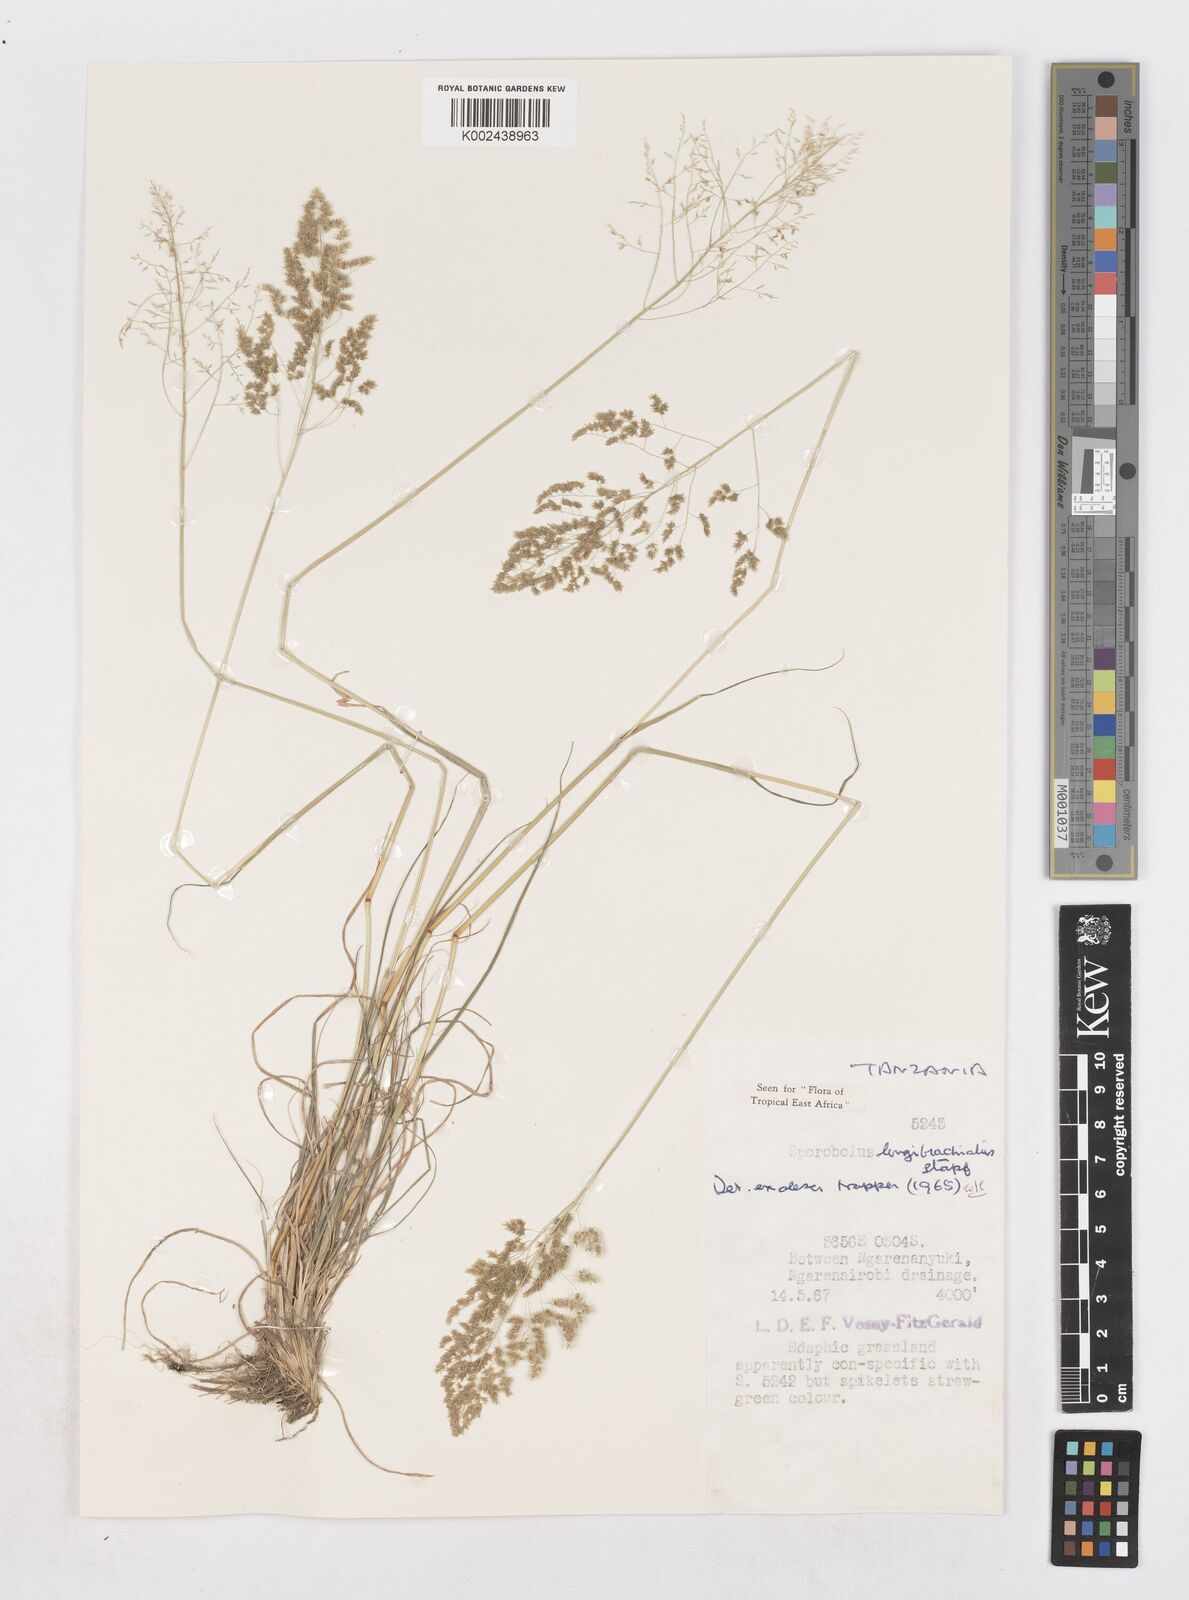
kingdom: Plantae
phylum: Tracheophyta
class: Liliopsida
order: Poales
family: Poaceae
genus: Sporobolus
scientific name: Sporobolus nervosus
